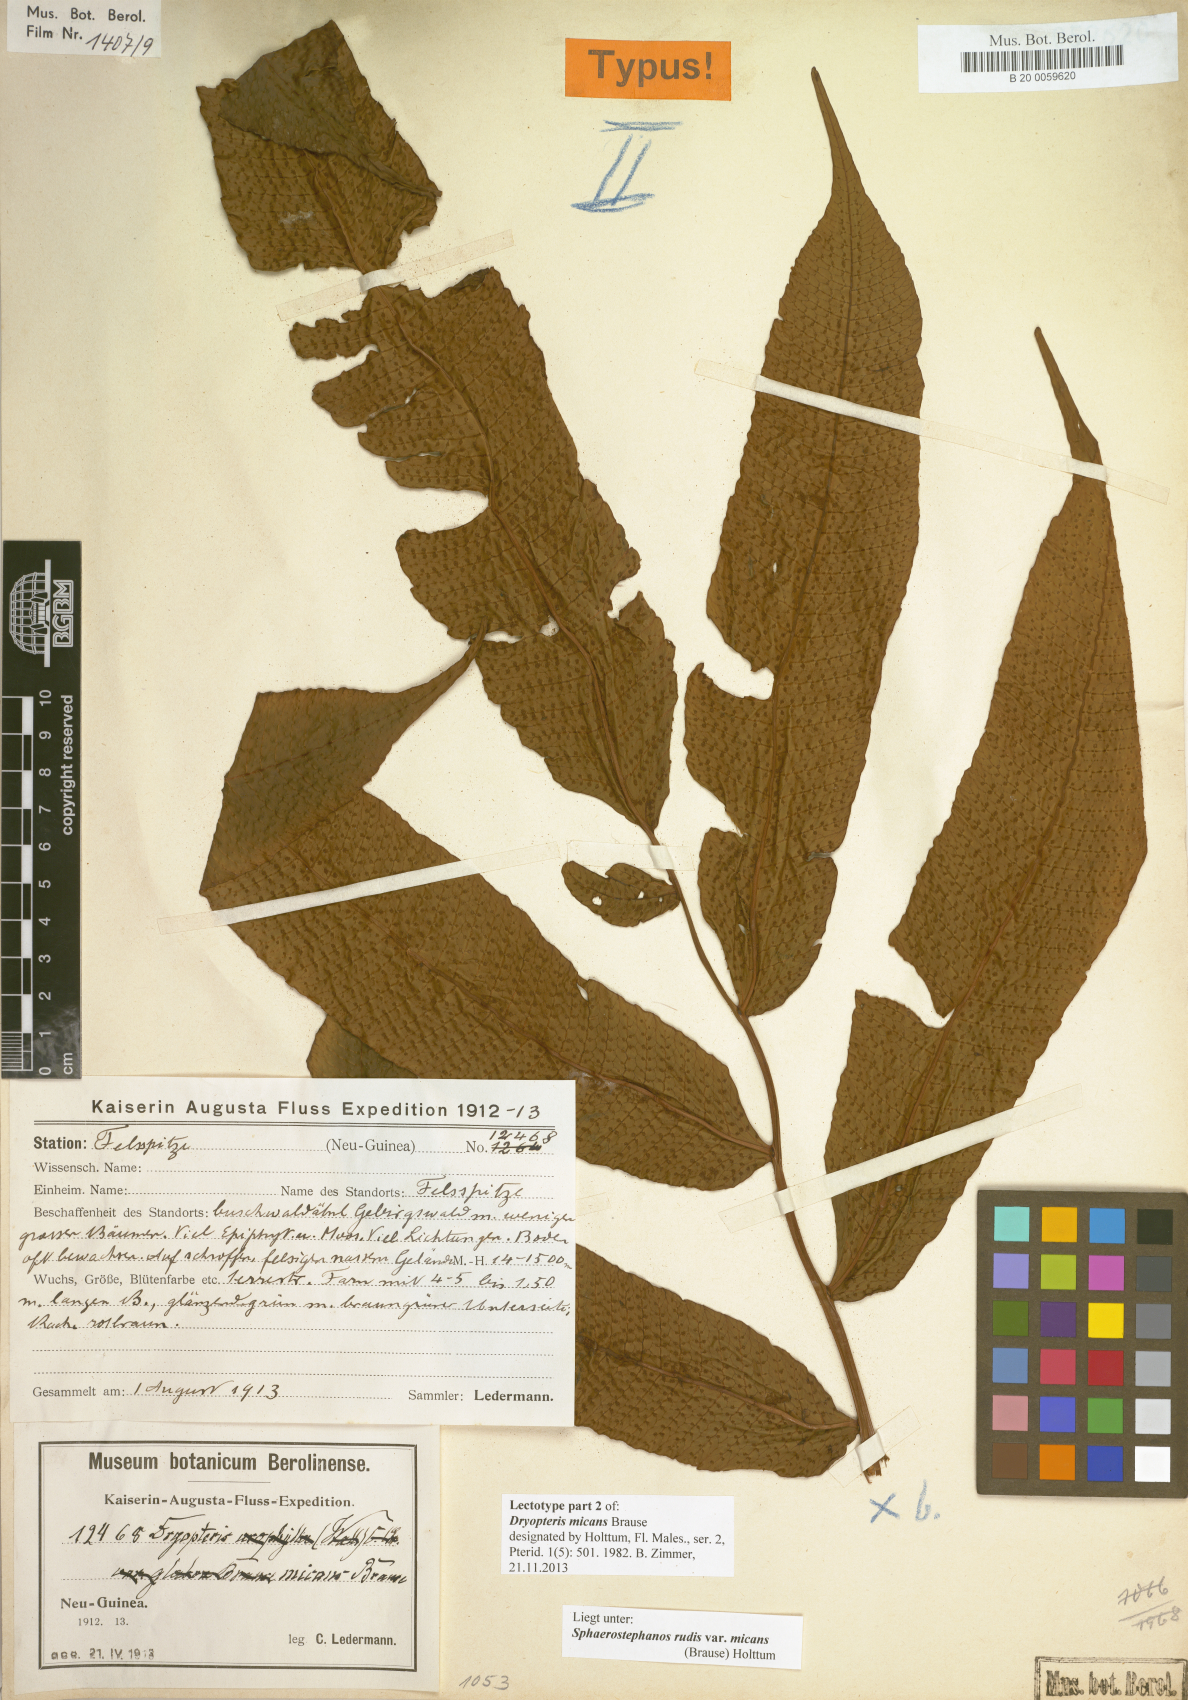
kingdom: Plantae
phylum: Tracheophyta
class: Polypodiopsida
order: Polypodiales
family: Thelypteridaceae
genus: Sphaerostephanos
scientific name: Sphaerostephanos rudis
